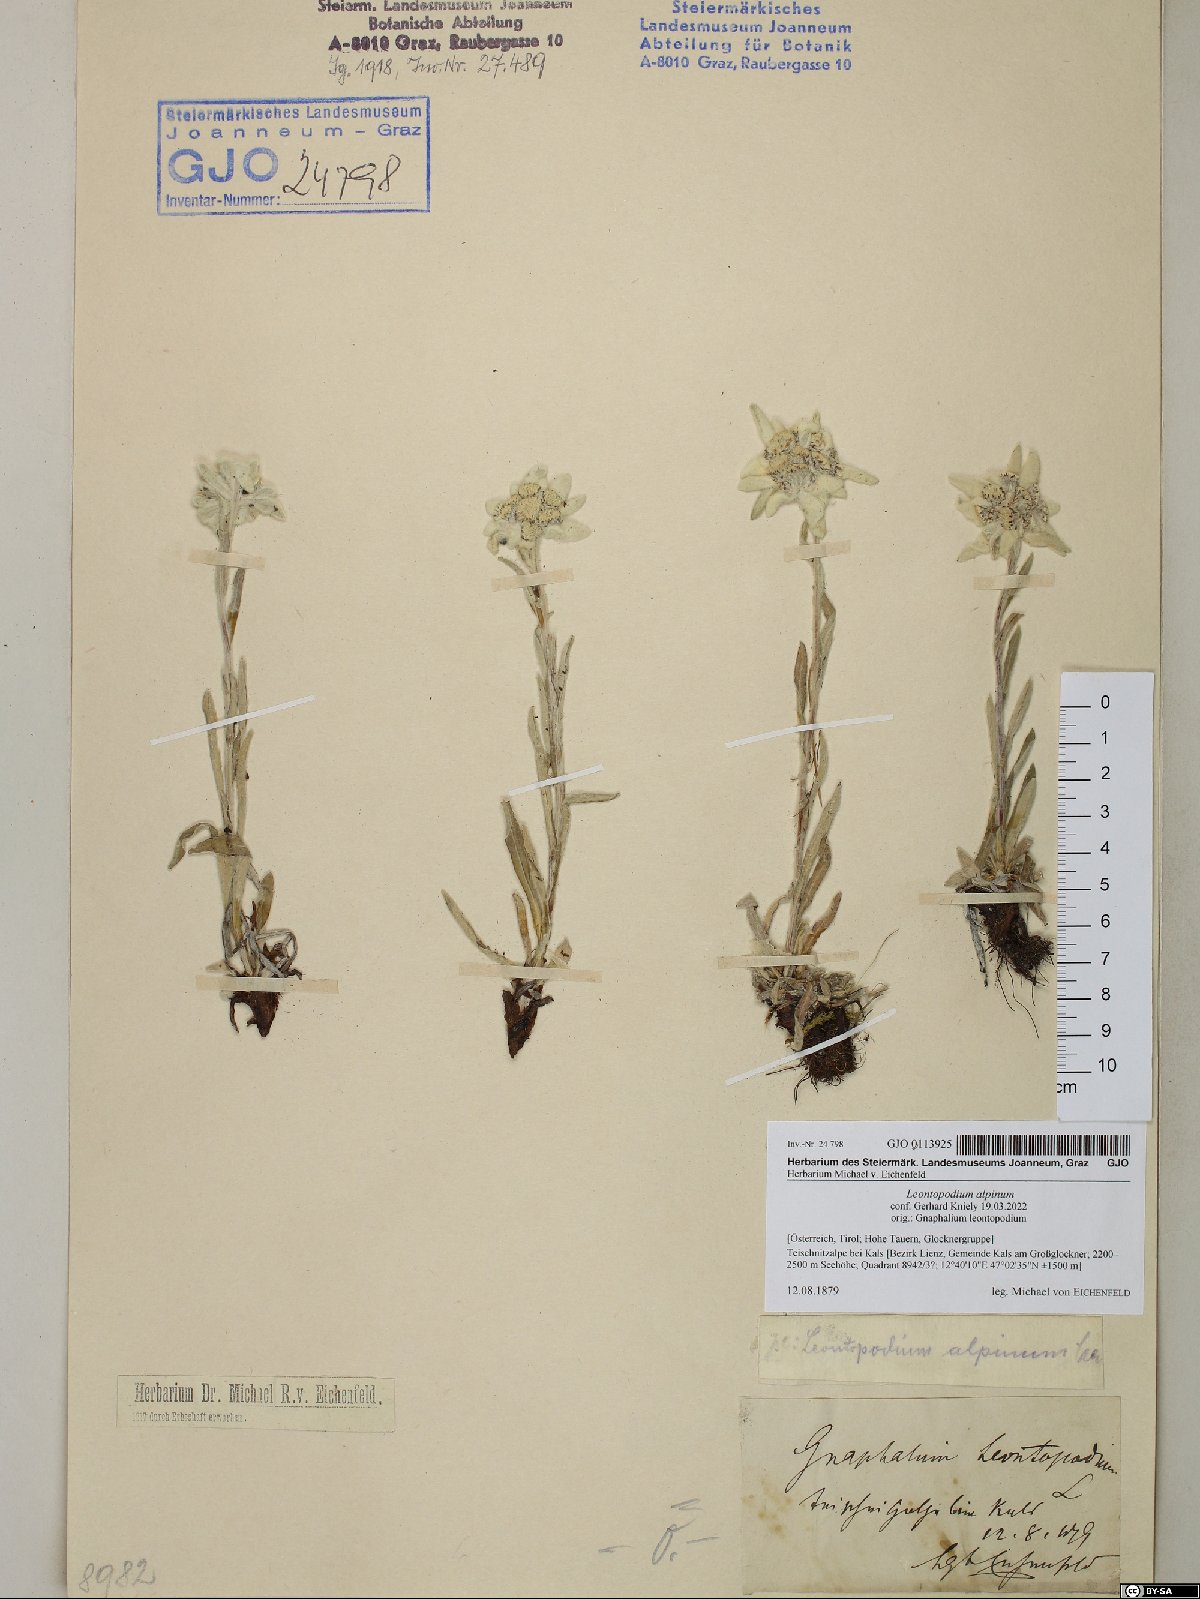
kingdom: Plantae
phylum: Tracheophyta
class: Magnoliopsida
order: Asterales
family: Asteraceae
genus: Leontopodium
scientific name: Leontopodium nivale
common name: Edelweiss
